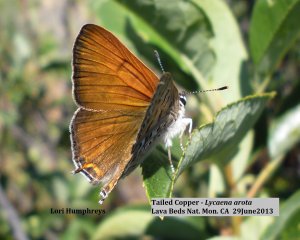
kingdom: Animalia
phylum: Arthropoda
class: Insecta
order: Lepidoptera
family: Sesiidae
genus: Sesia
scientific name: Sesia Lycaena arota
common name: Tailed Copper
